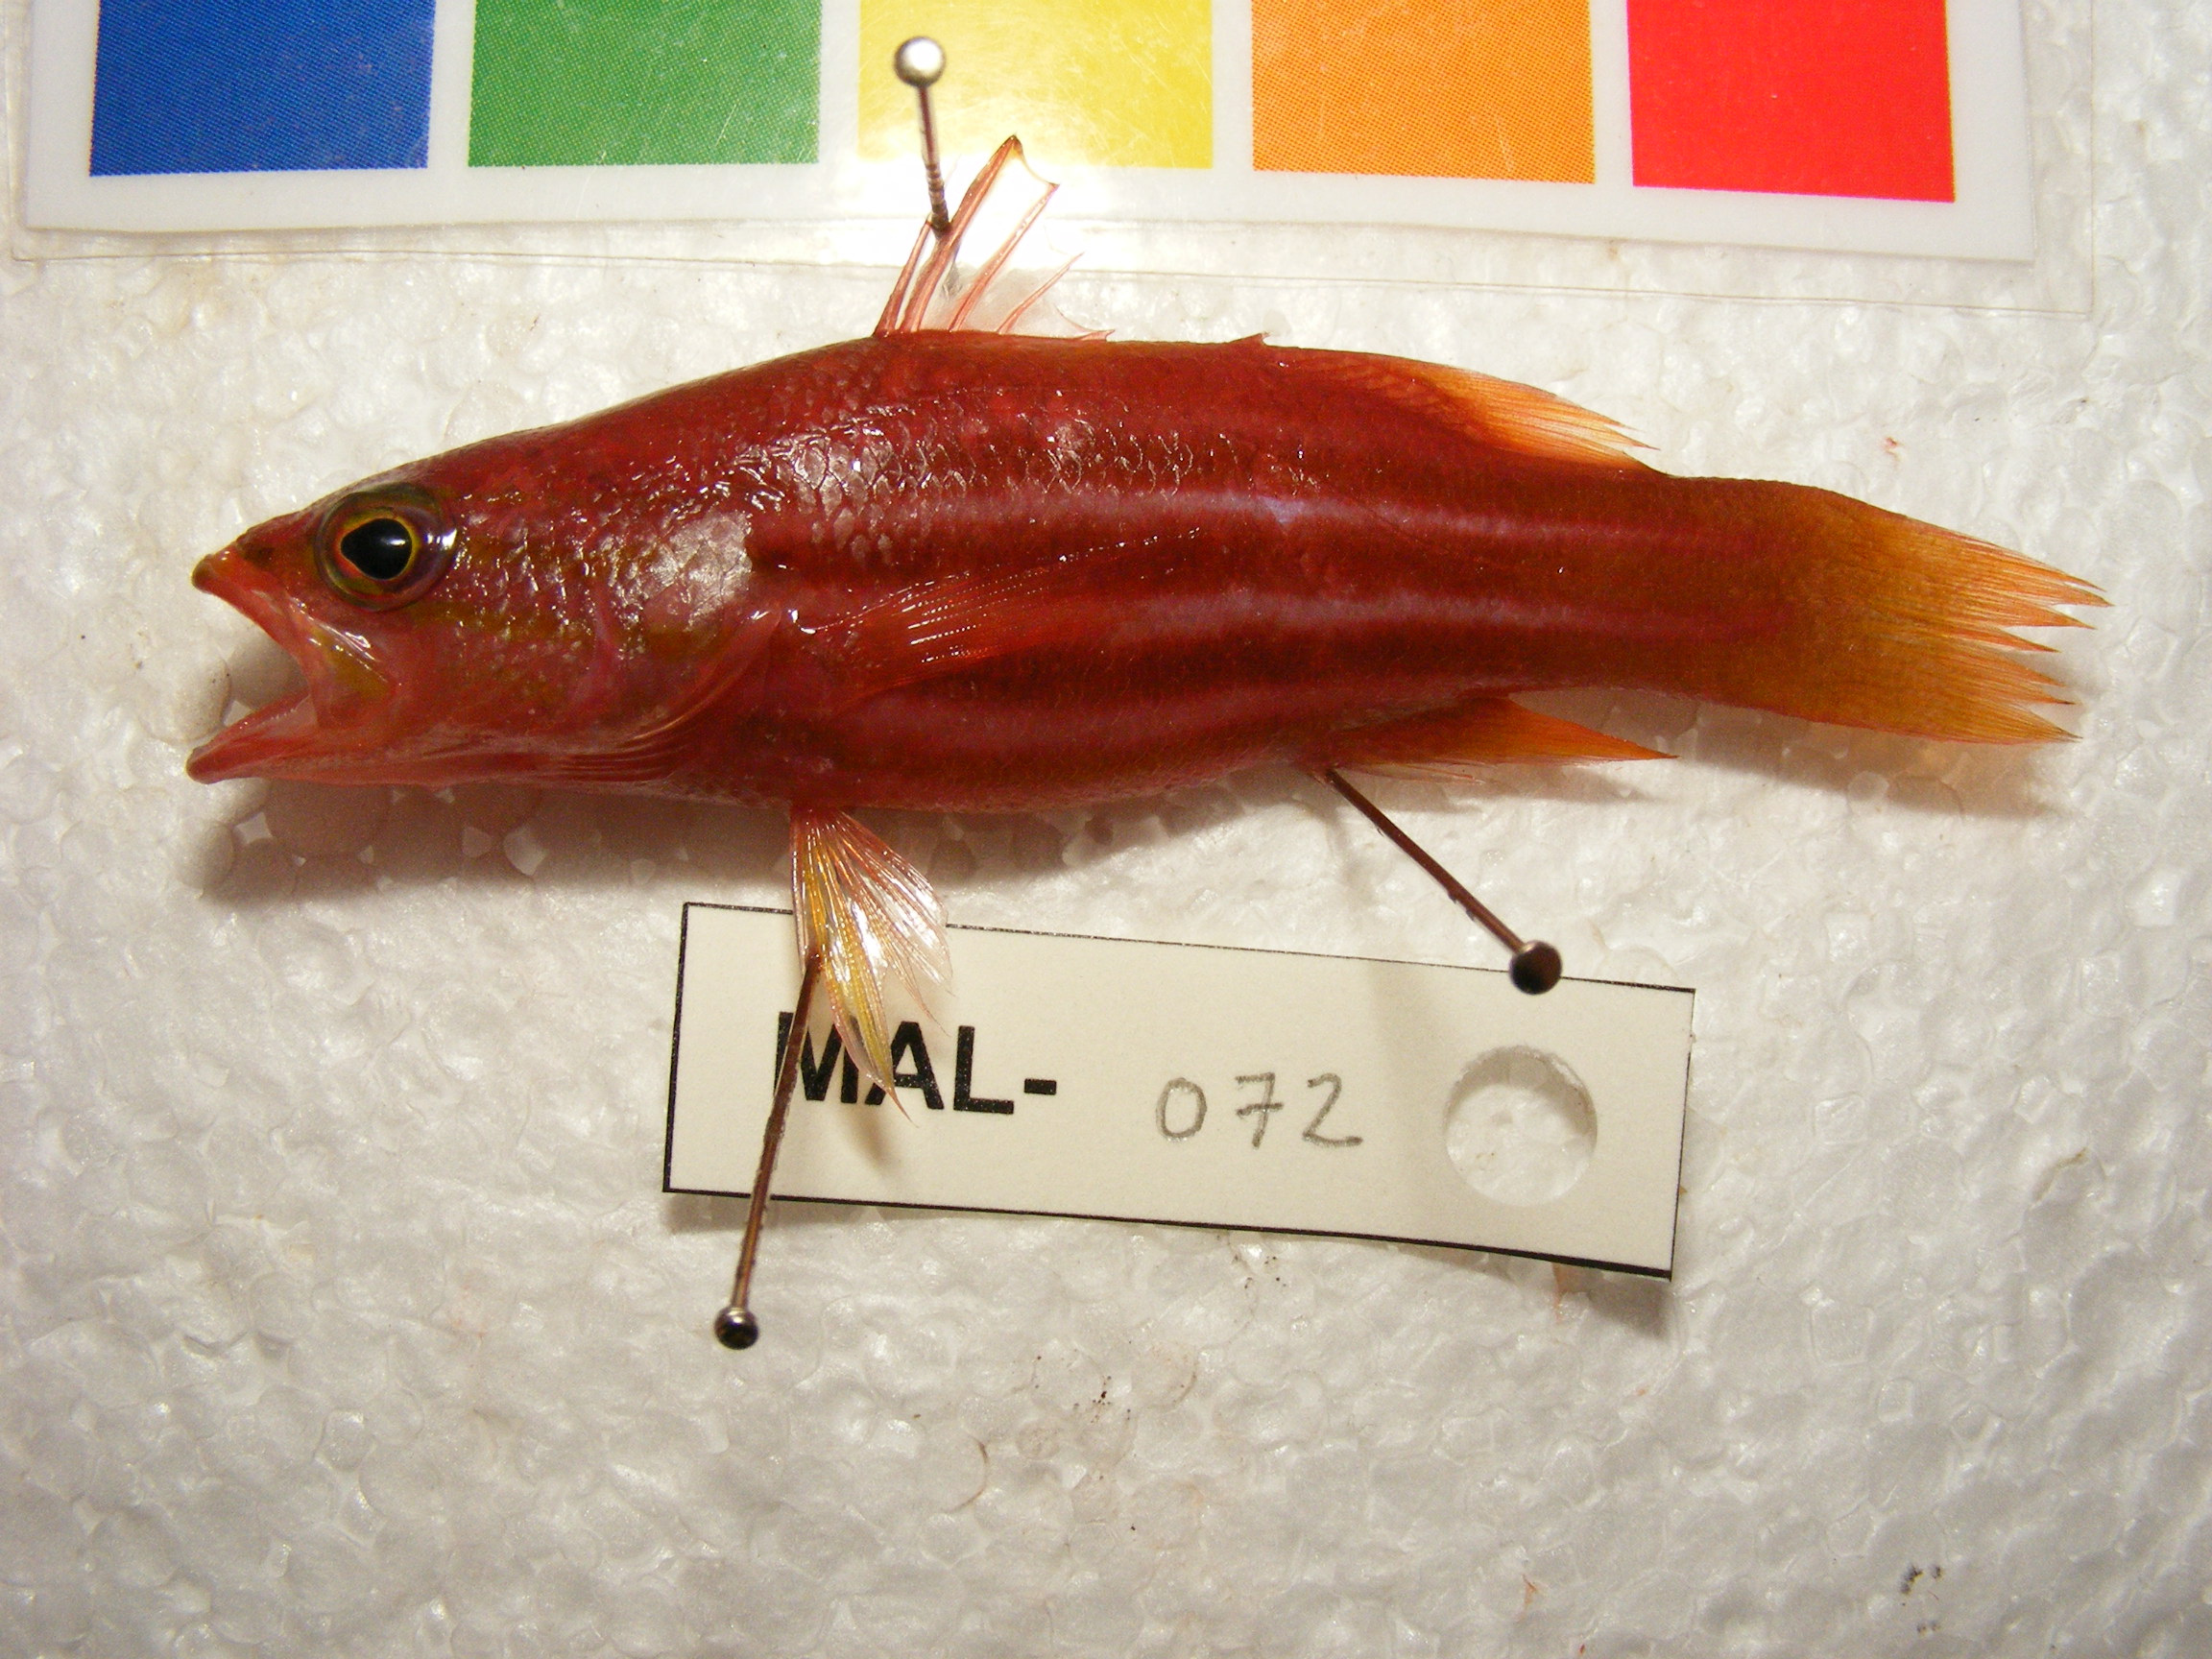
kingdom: Animalia
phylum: Chordata
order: Perciformes
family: Serranidae
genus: Liopropoma
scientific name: Liopropoma africanum
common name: African basslet
